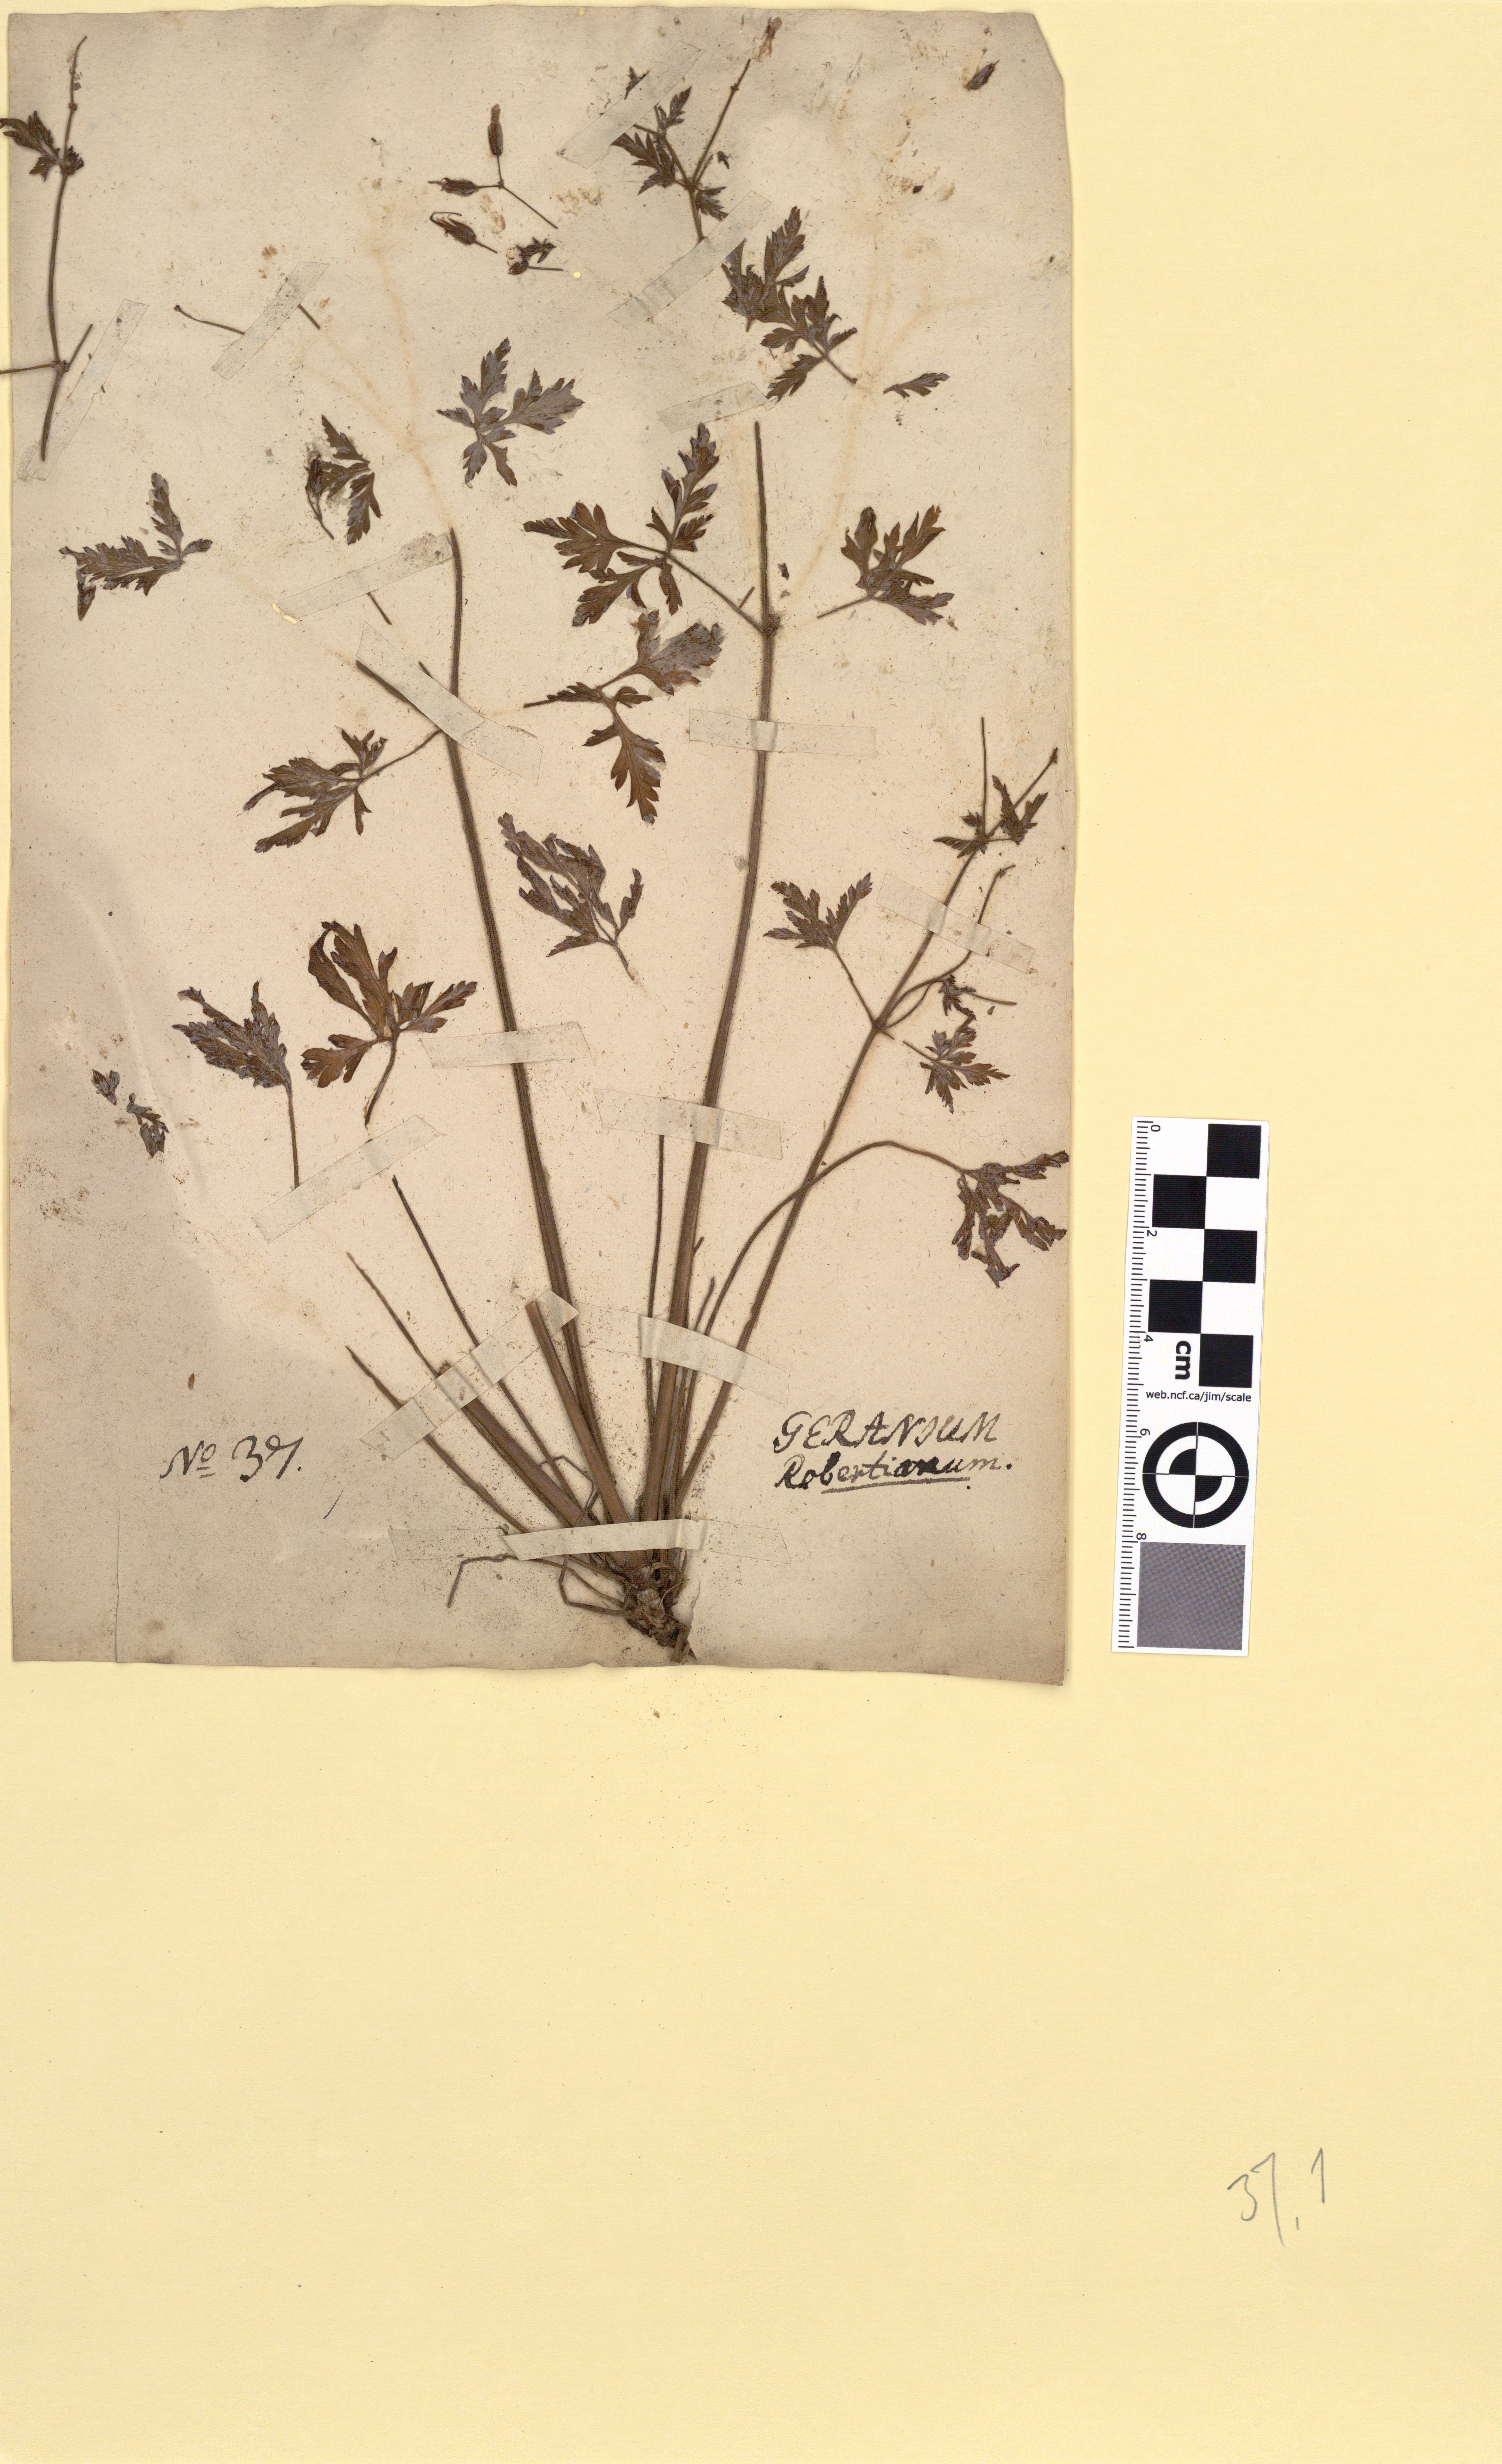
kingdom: Plantae
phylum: Tracheophyta
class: Magnoliopsida
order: Geraniales
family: Geraniaceae
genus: Geranium
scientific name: Geranium robertianum
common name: Herb-robert
